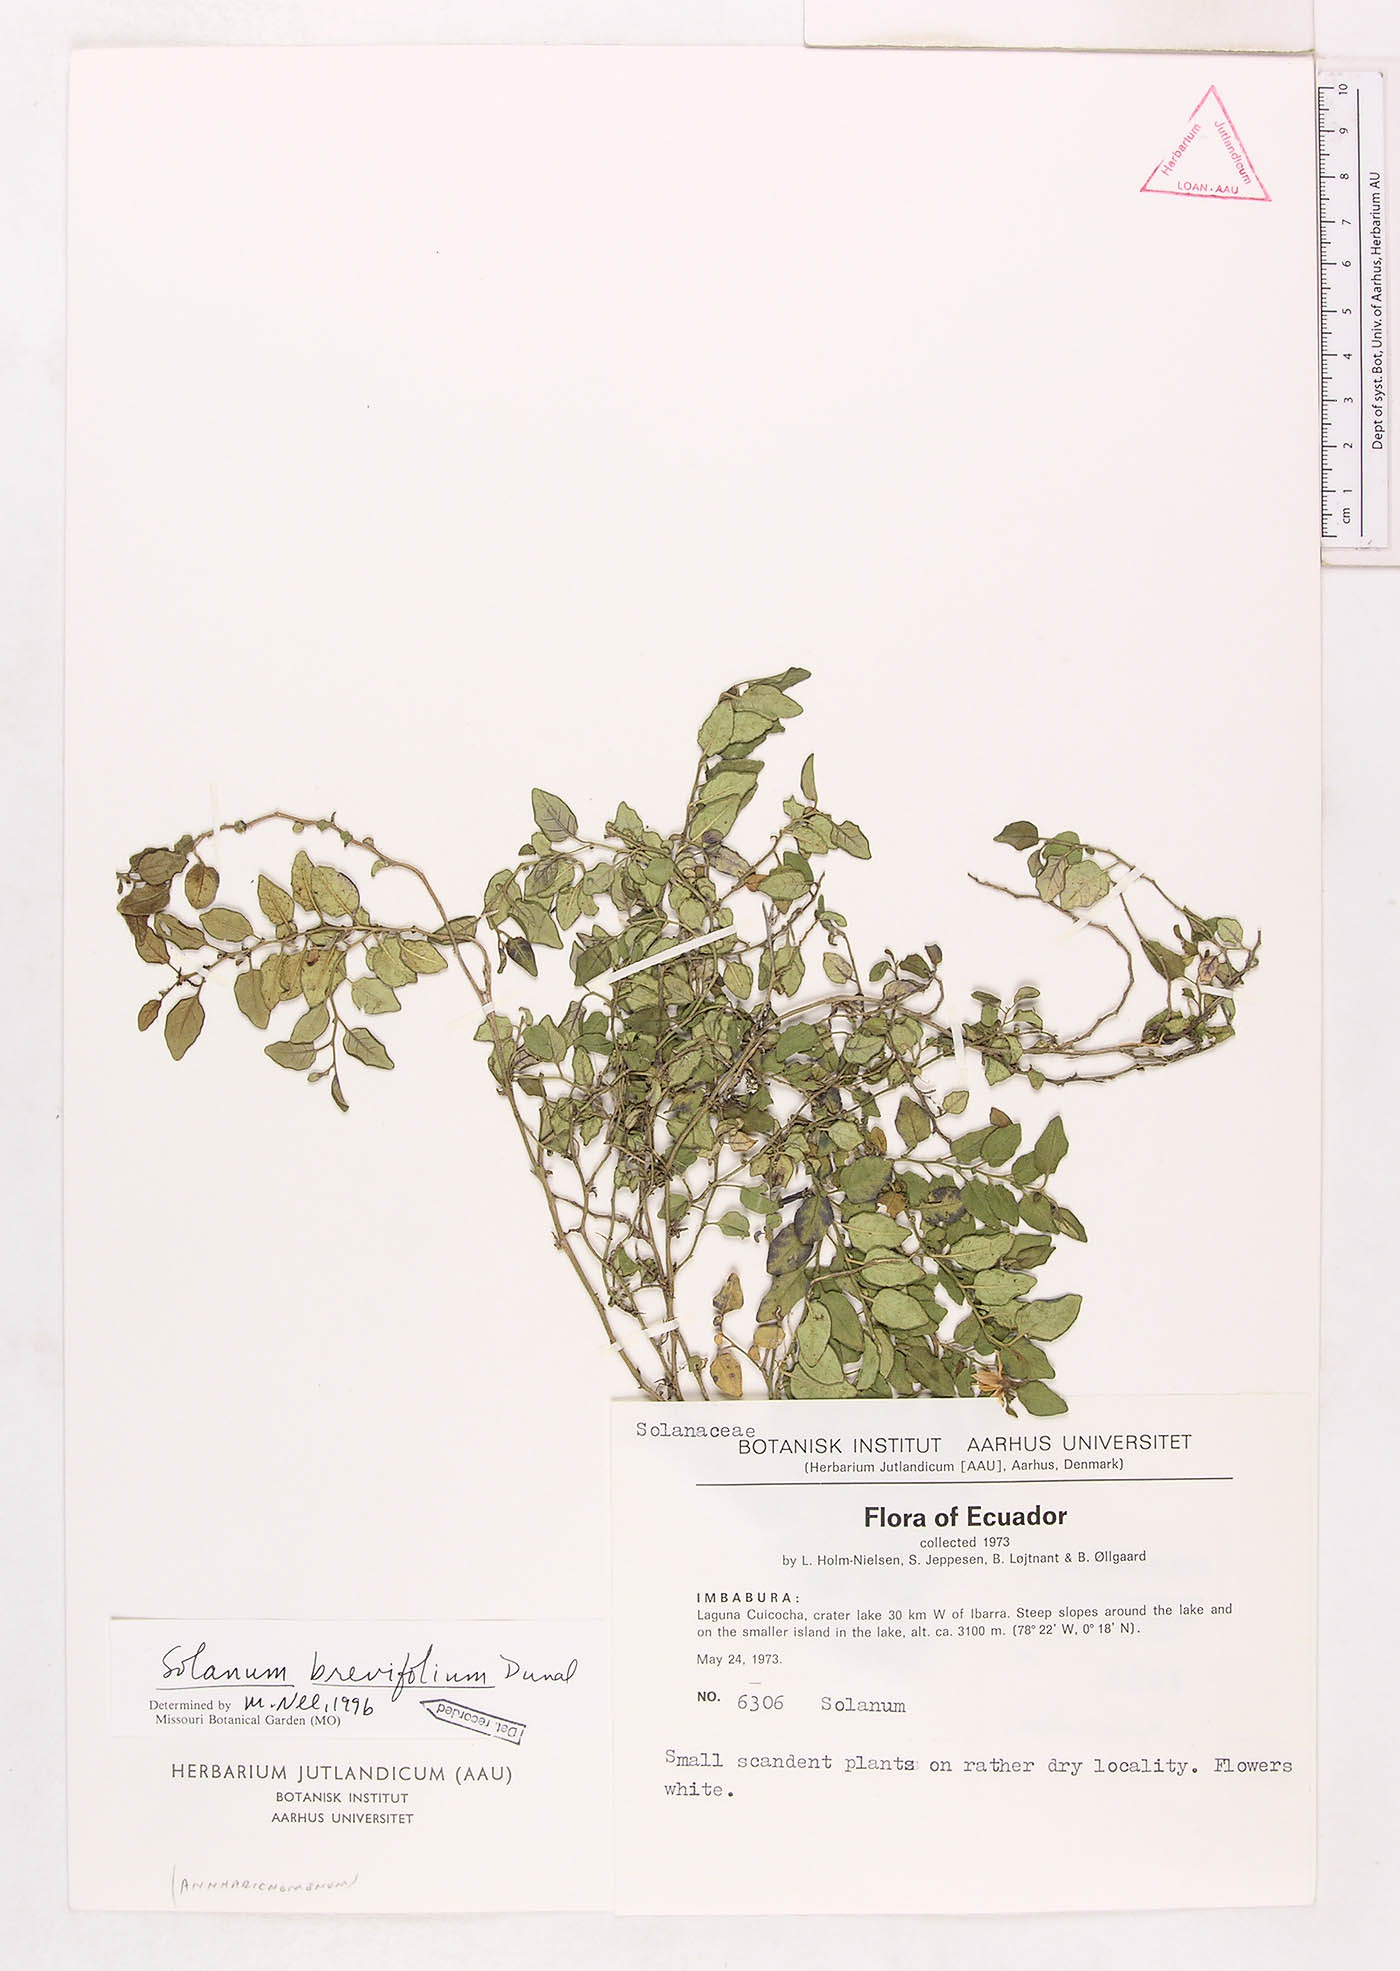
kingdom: Plantae
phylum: Tracheophyta
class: Magnoliopsida
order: Solanales
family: Solanaceae
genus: Solanum
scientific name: Solanum brevifolium
